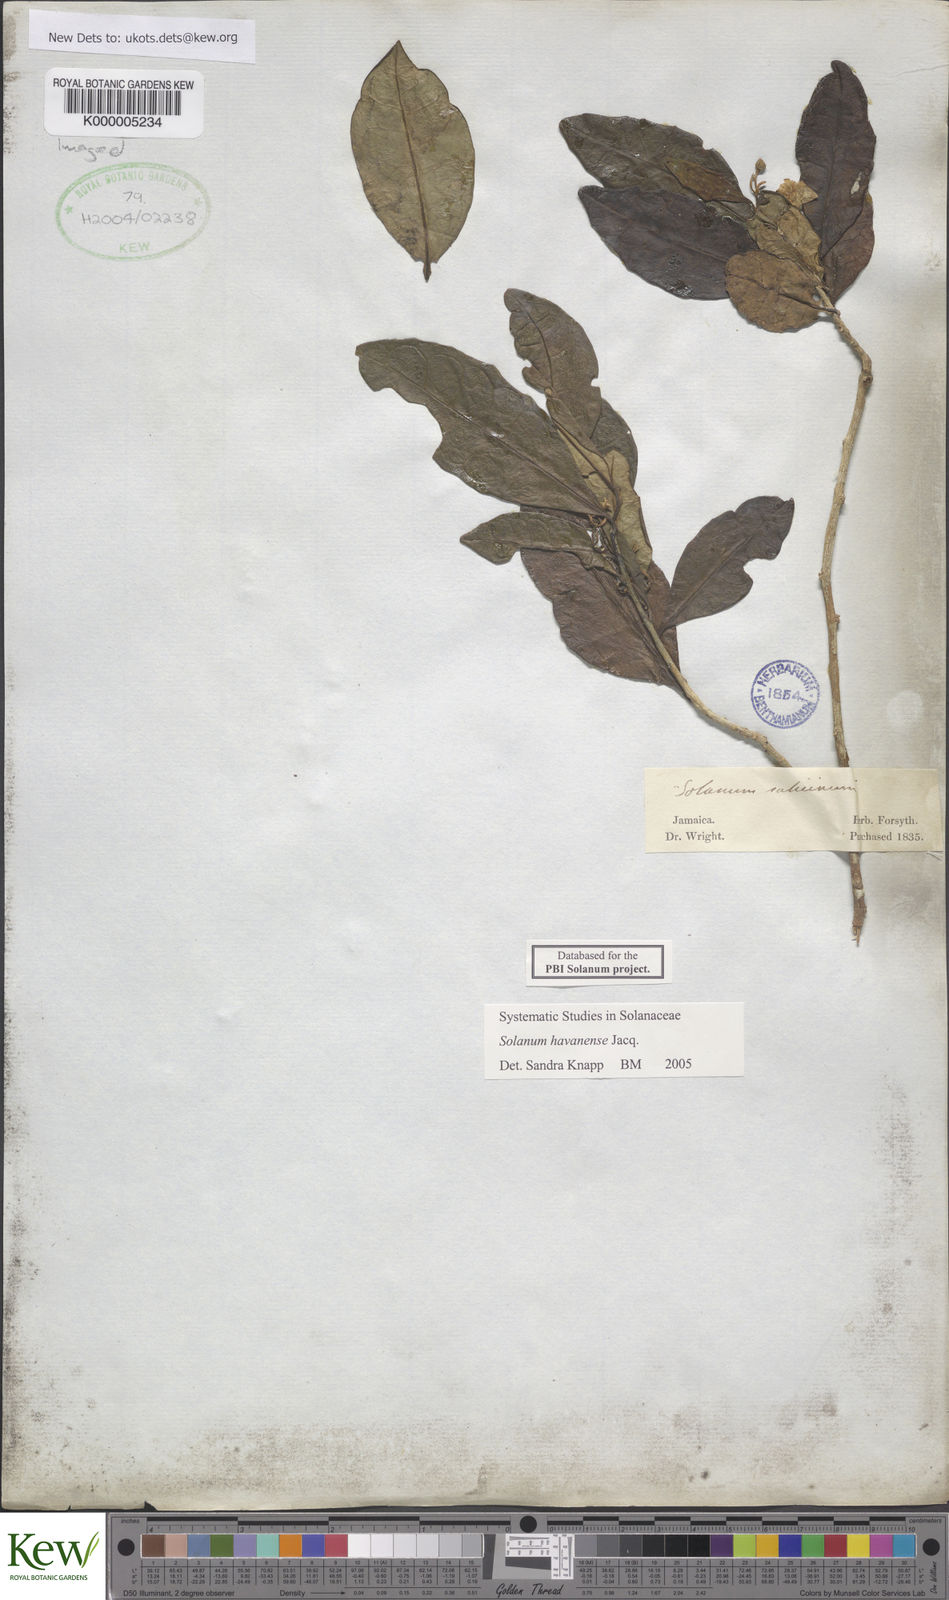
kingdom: Plantae
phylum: Tracheophyta
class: Magnoliopsida
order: Solanales
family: Solanaceae
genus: Solanum
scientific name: Solanum havanense
